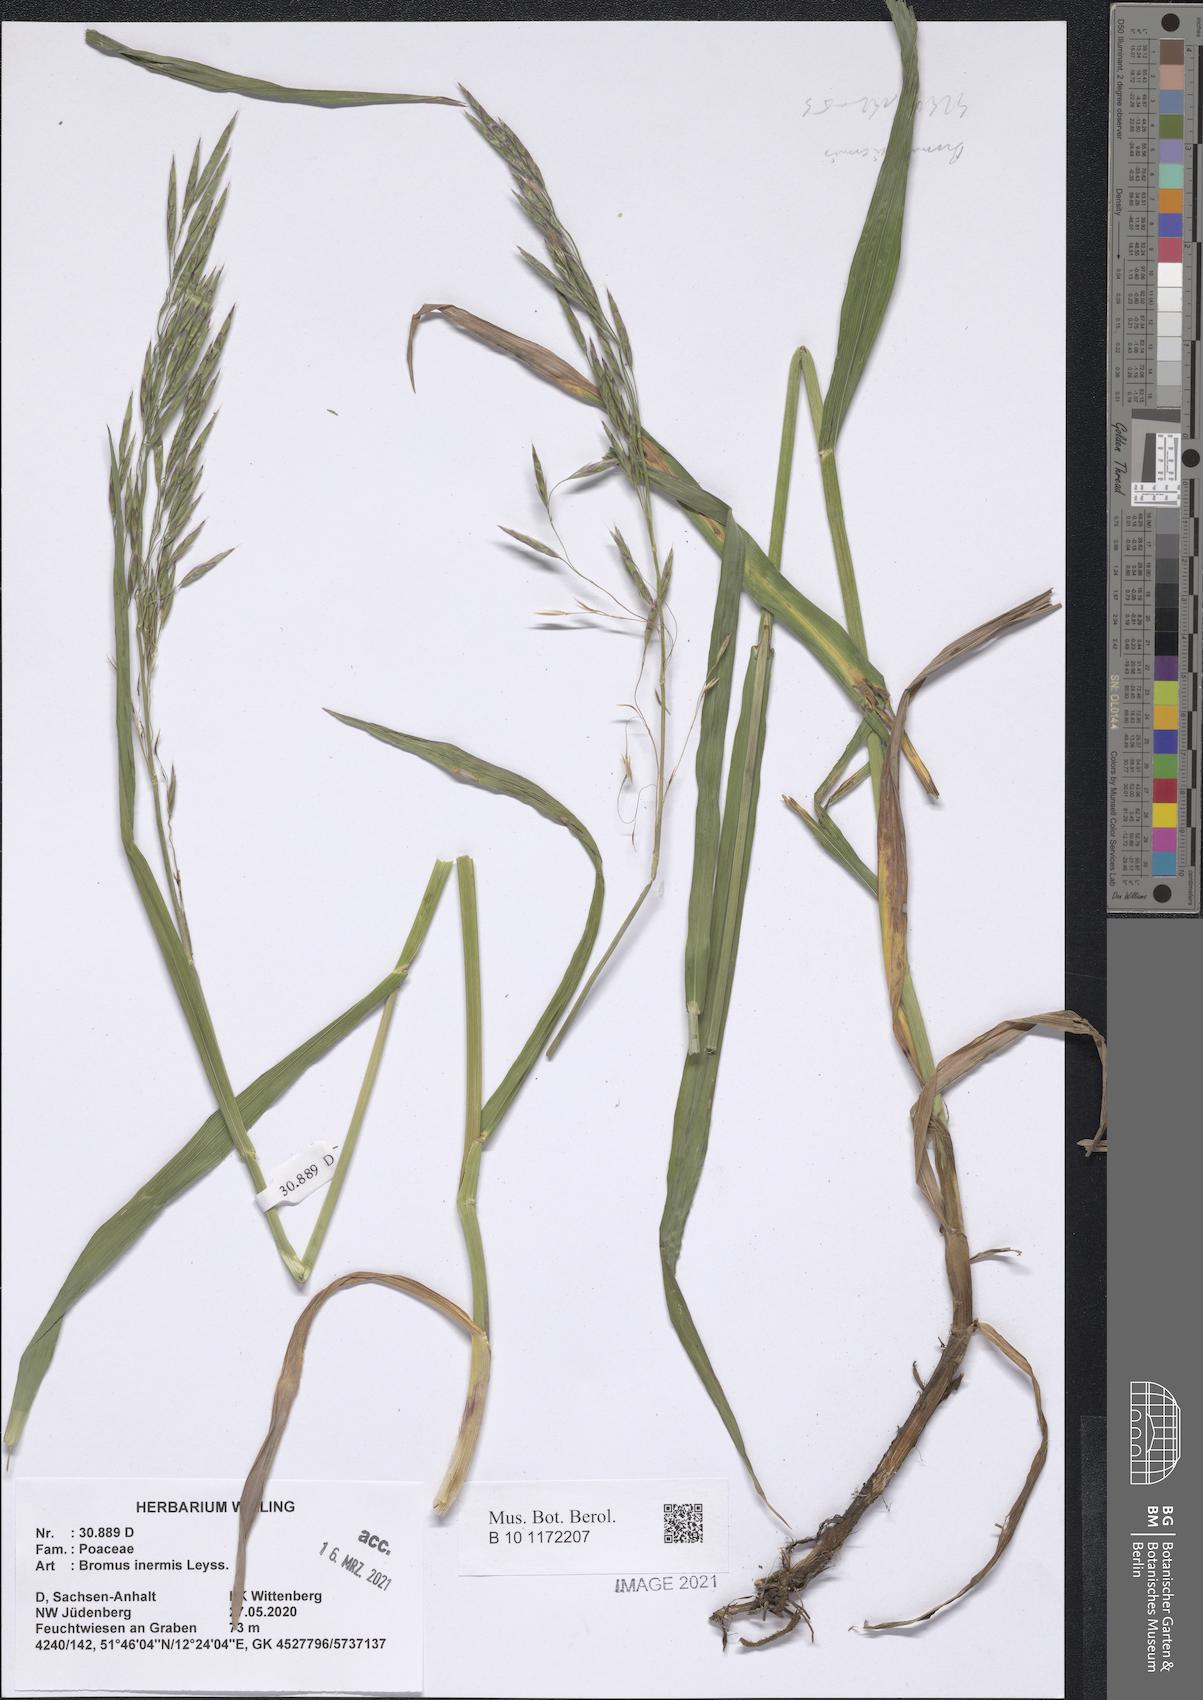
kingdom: Plantae
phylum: Tracheophyta
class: Liliopsida
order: Poales
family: Poaceae
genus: Bromus
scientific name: Bromus inermis
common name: Smooth brome
